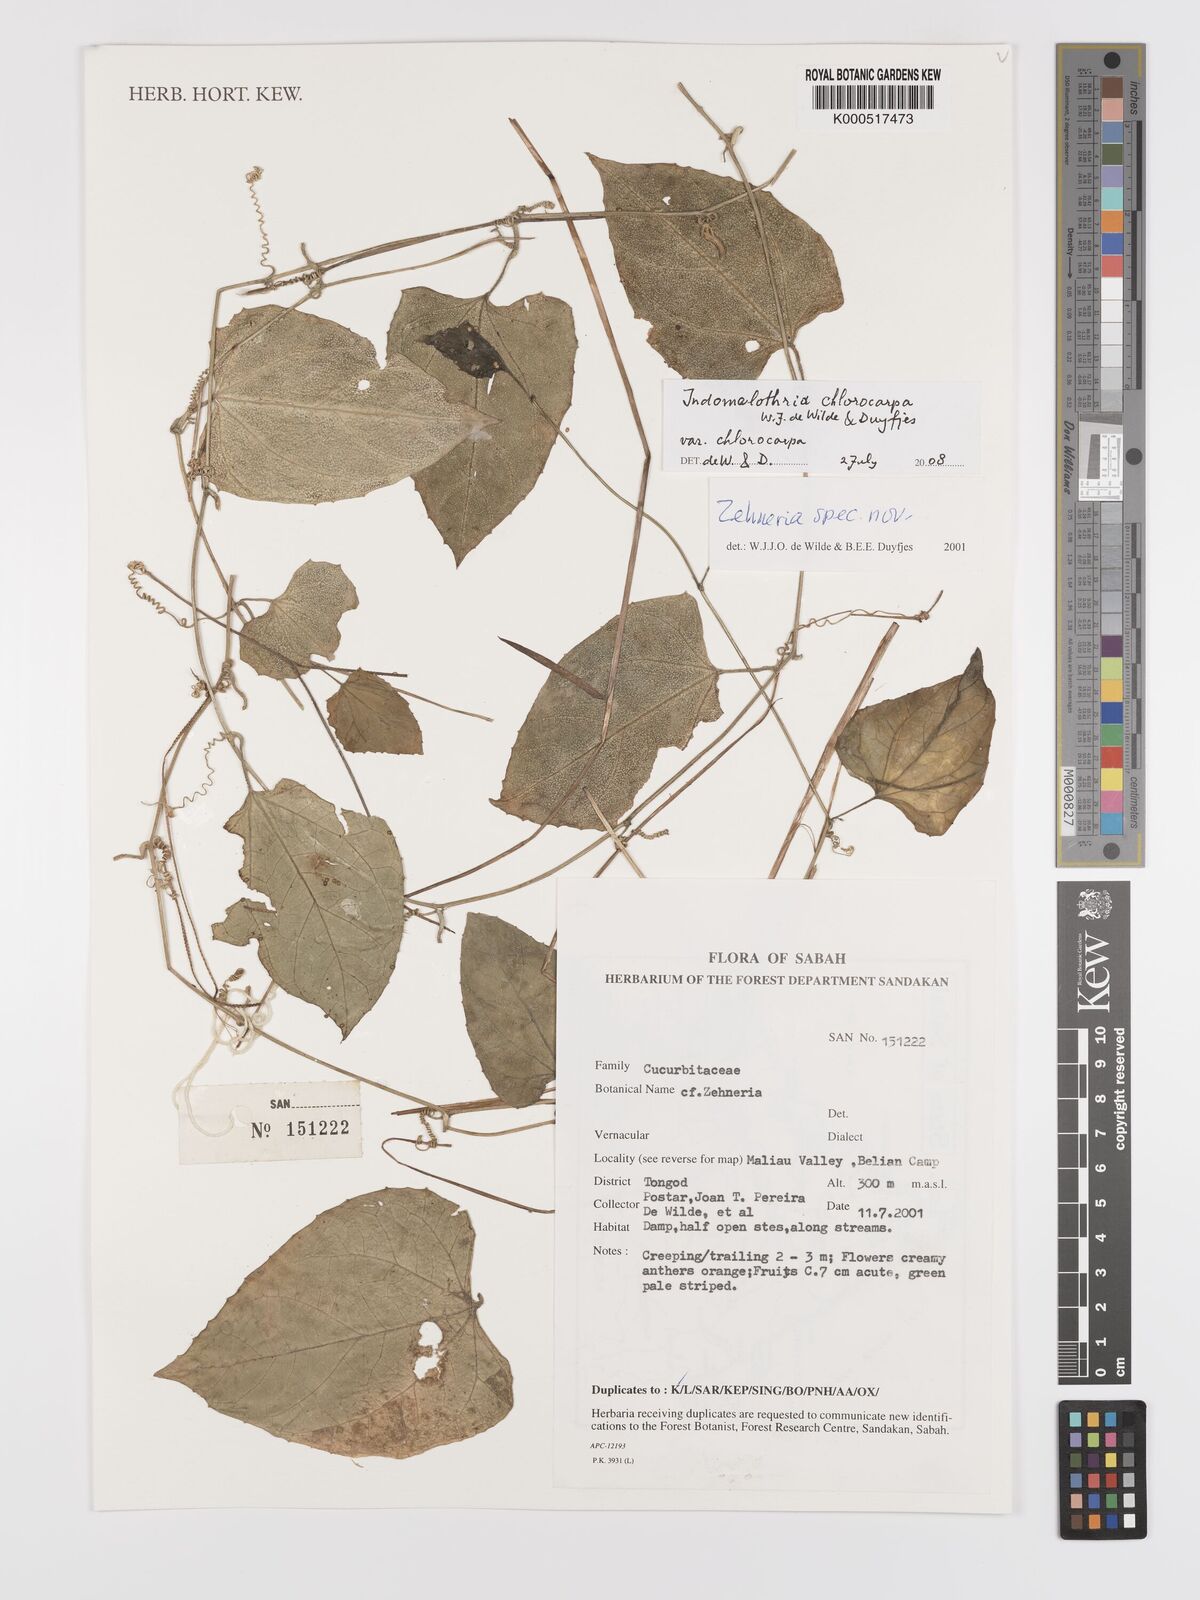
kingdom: Plantae
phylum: Tracheophyta
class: Magnoliopsida
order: Cucurbitales
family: Cucurbitaceae
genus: Indomelothria
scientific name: Indomelothria chlorocarpa
